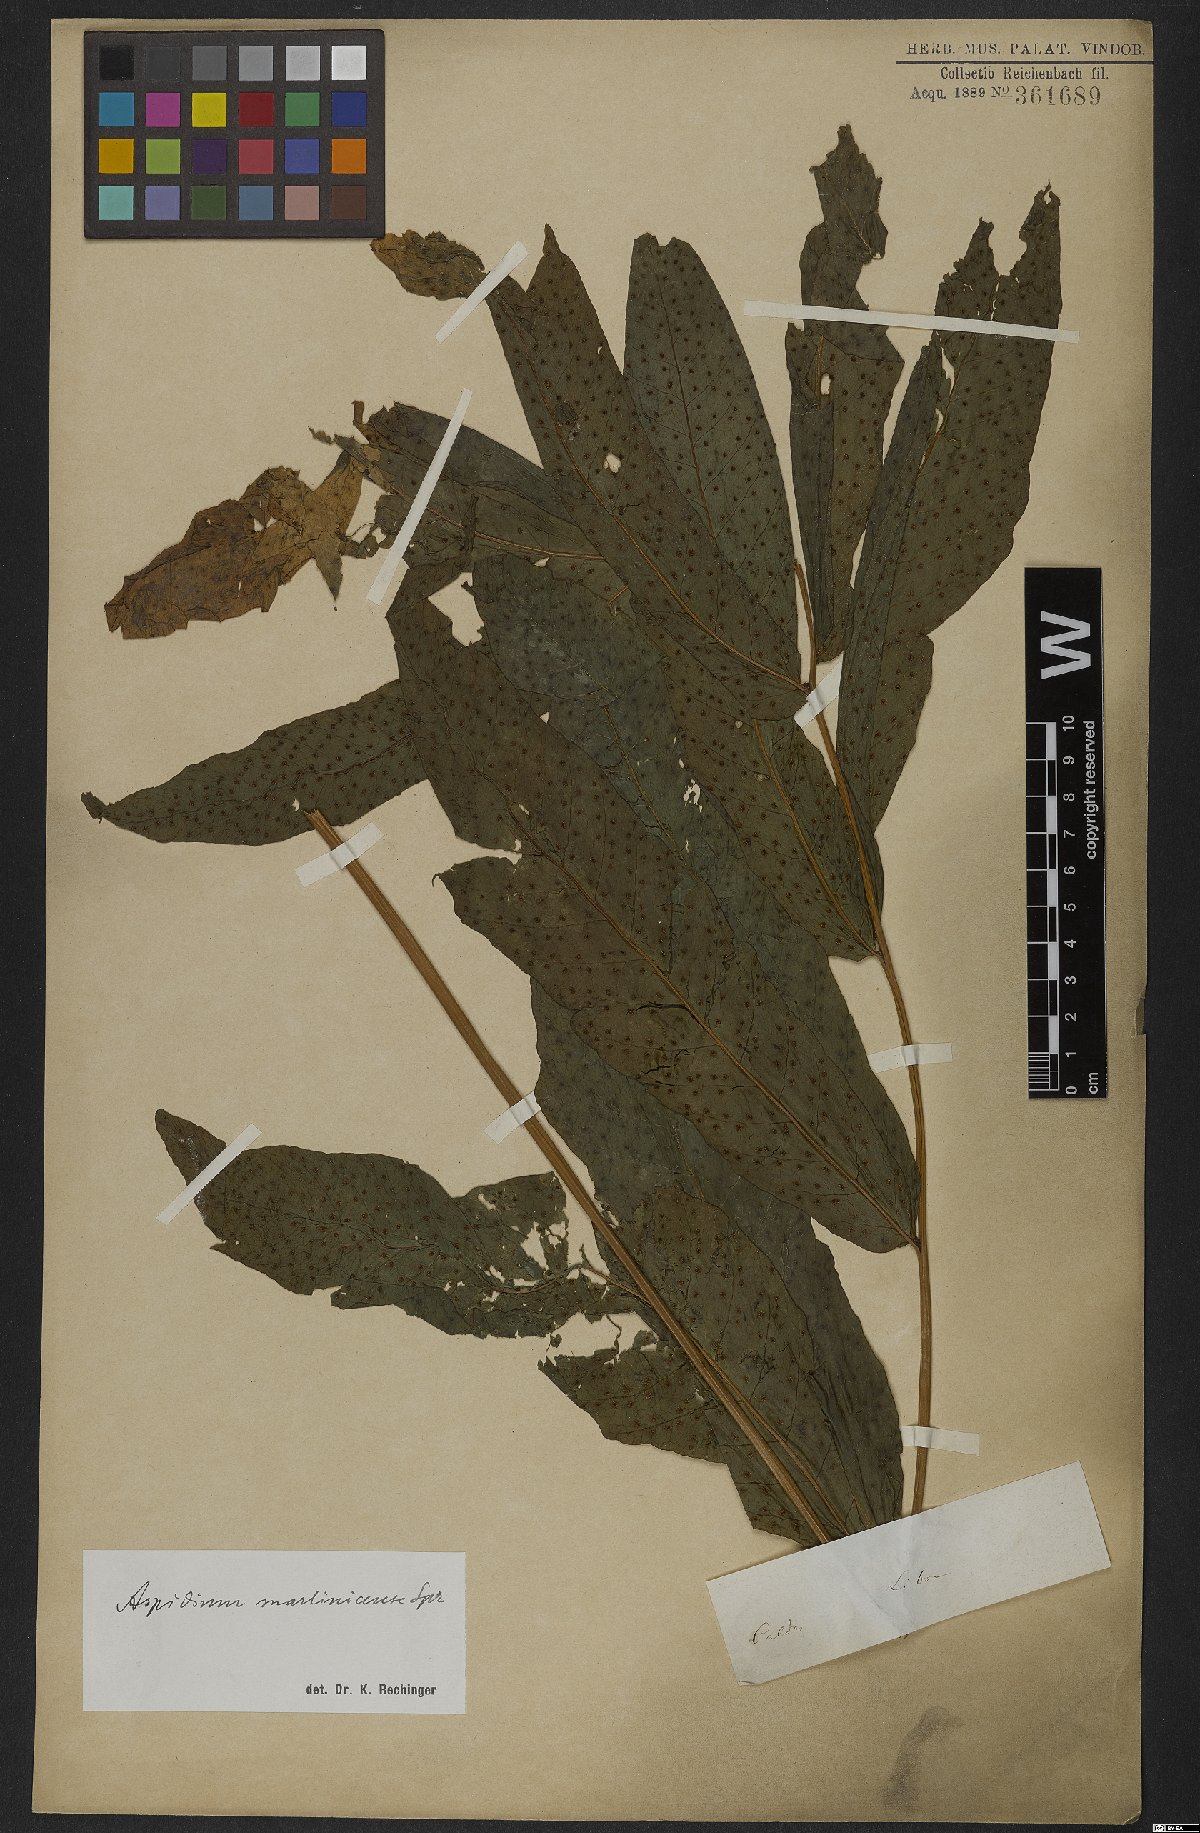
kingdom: Plantae
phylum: Tracheophyta
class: Polypodiopsida
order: Polypodiales
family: Tectariaceae
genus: Tectaria
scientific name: Tectaria incisa
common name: Incised halberd fern
